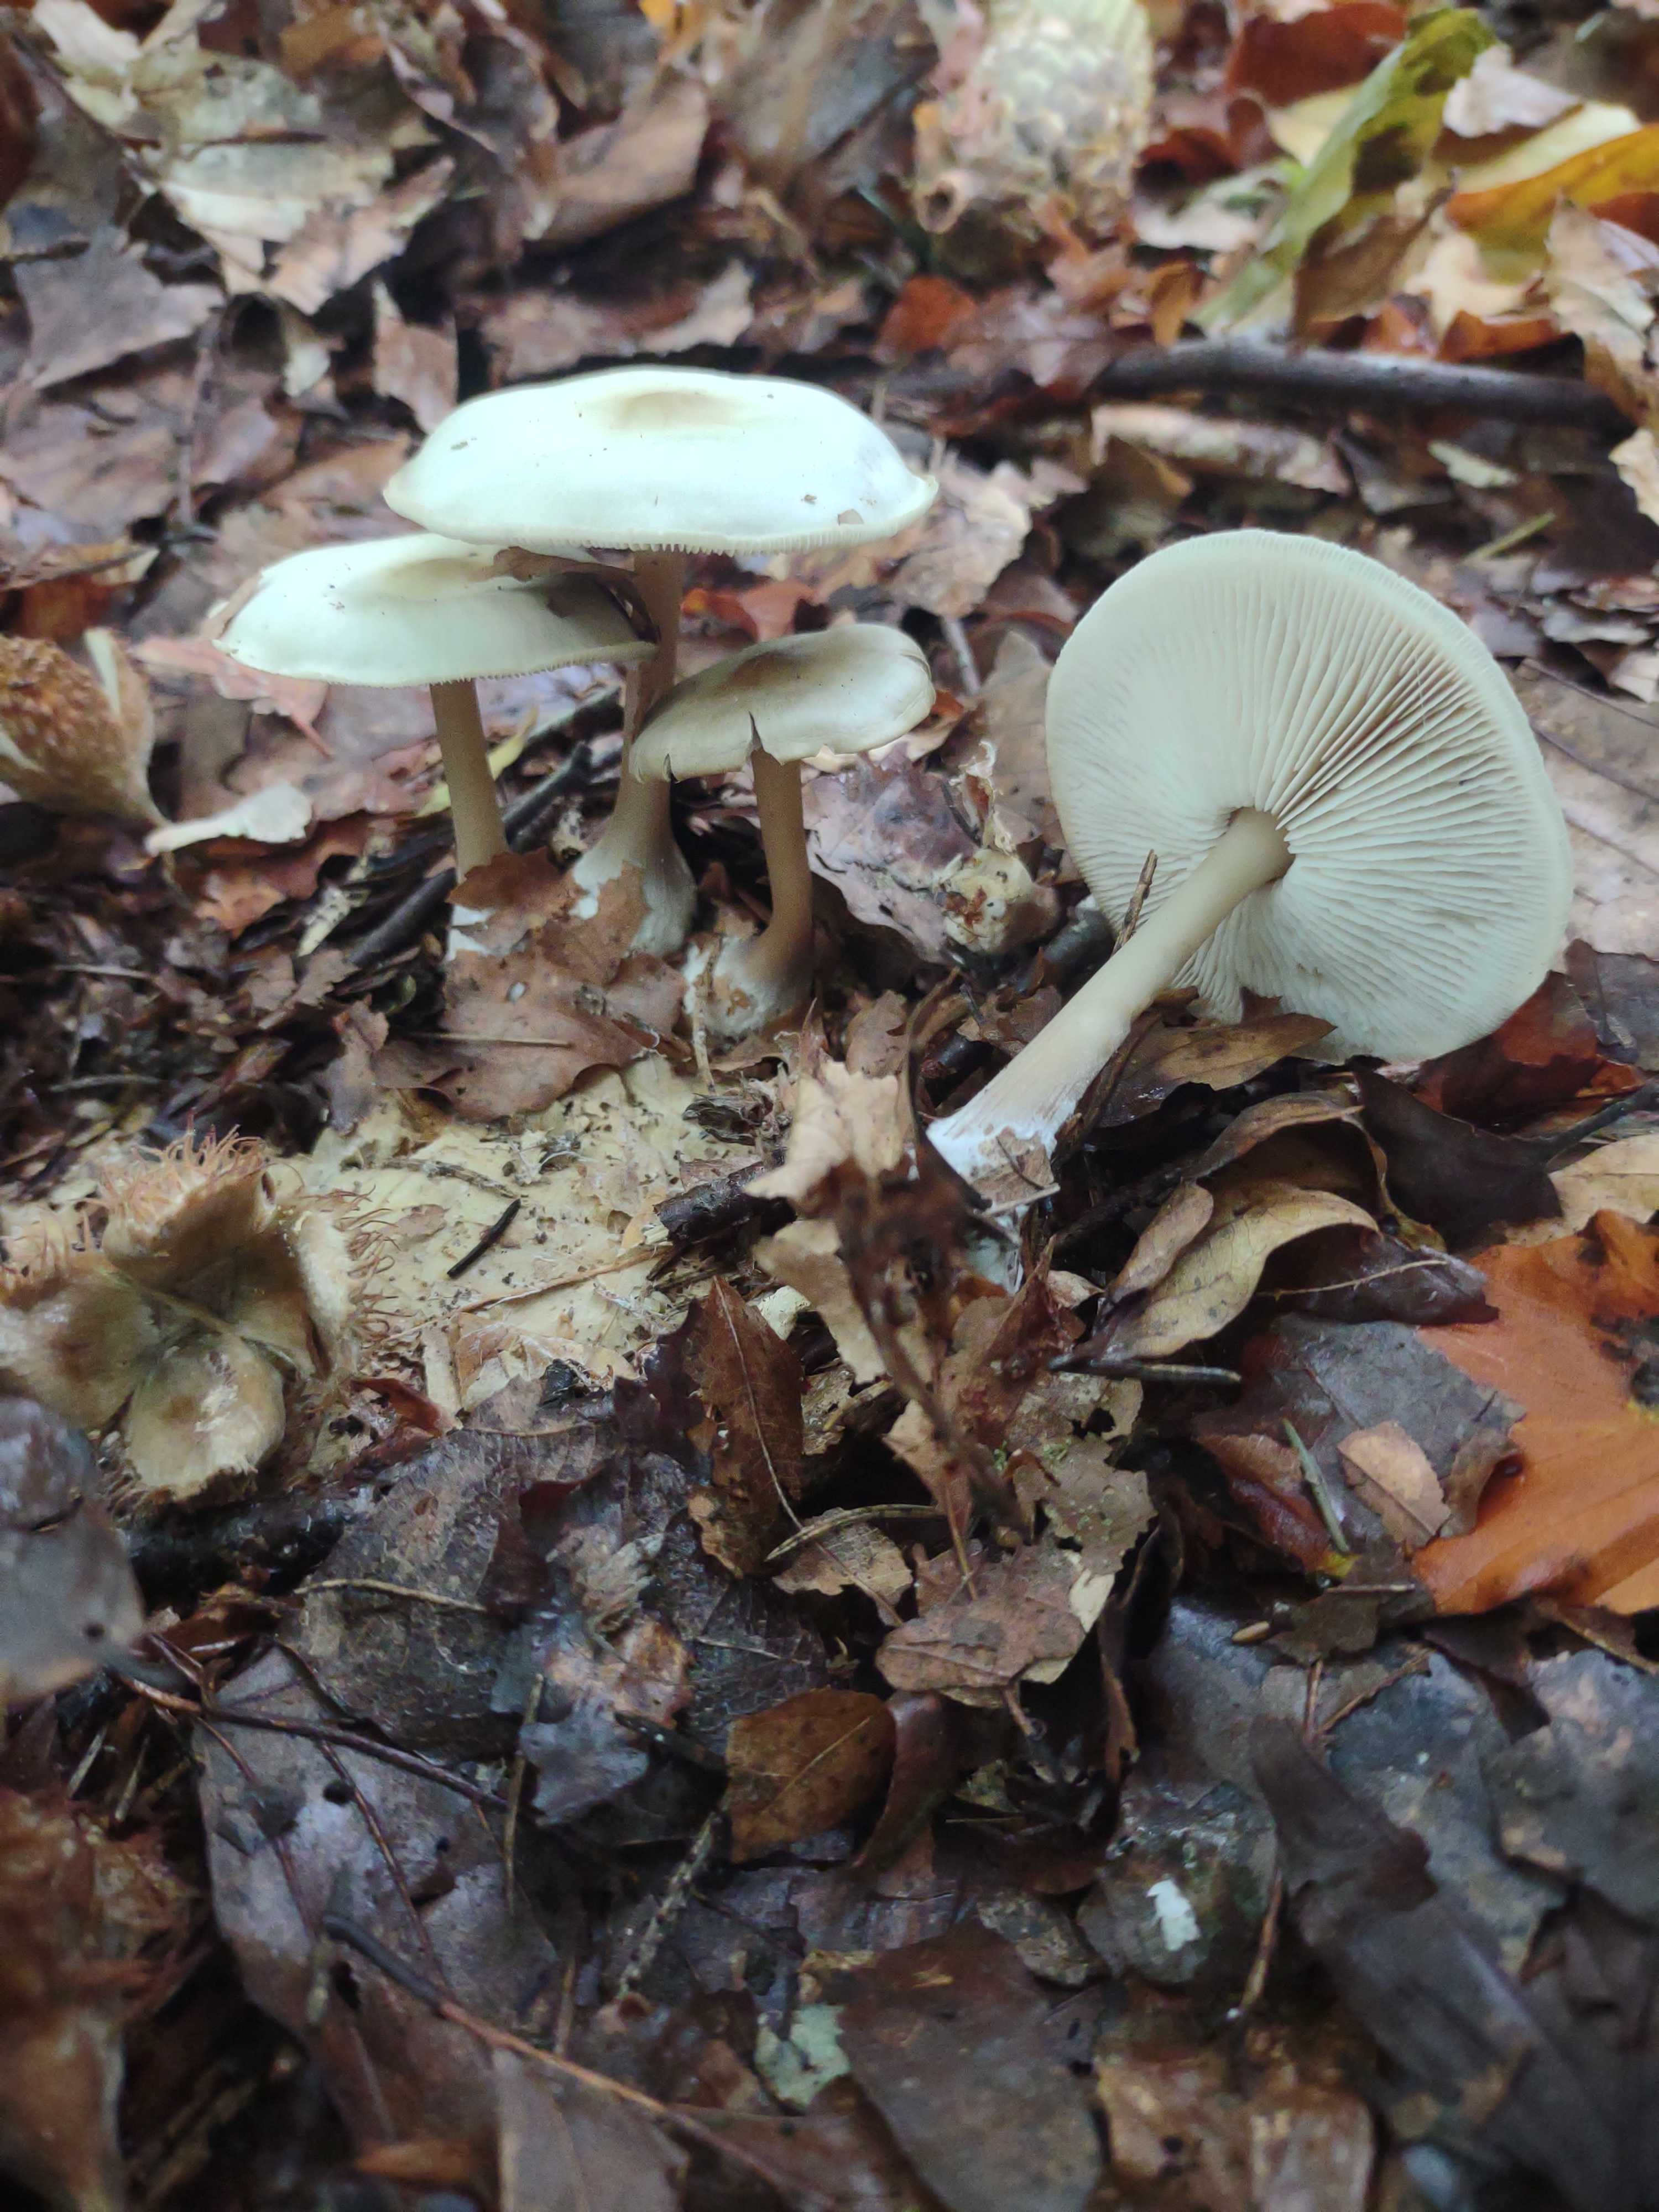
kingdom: Fungi
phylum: Basidiomycota
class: Agaricomycetes
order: Agaricales
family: Omphalotaceae
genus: Rhodocollybia
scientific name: Rhodocollybia asema
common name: horngrå fladhat
